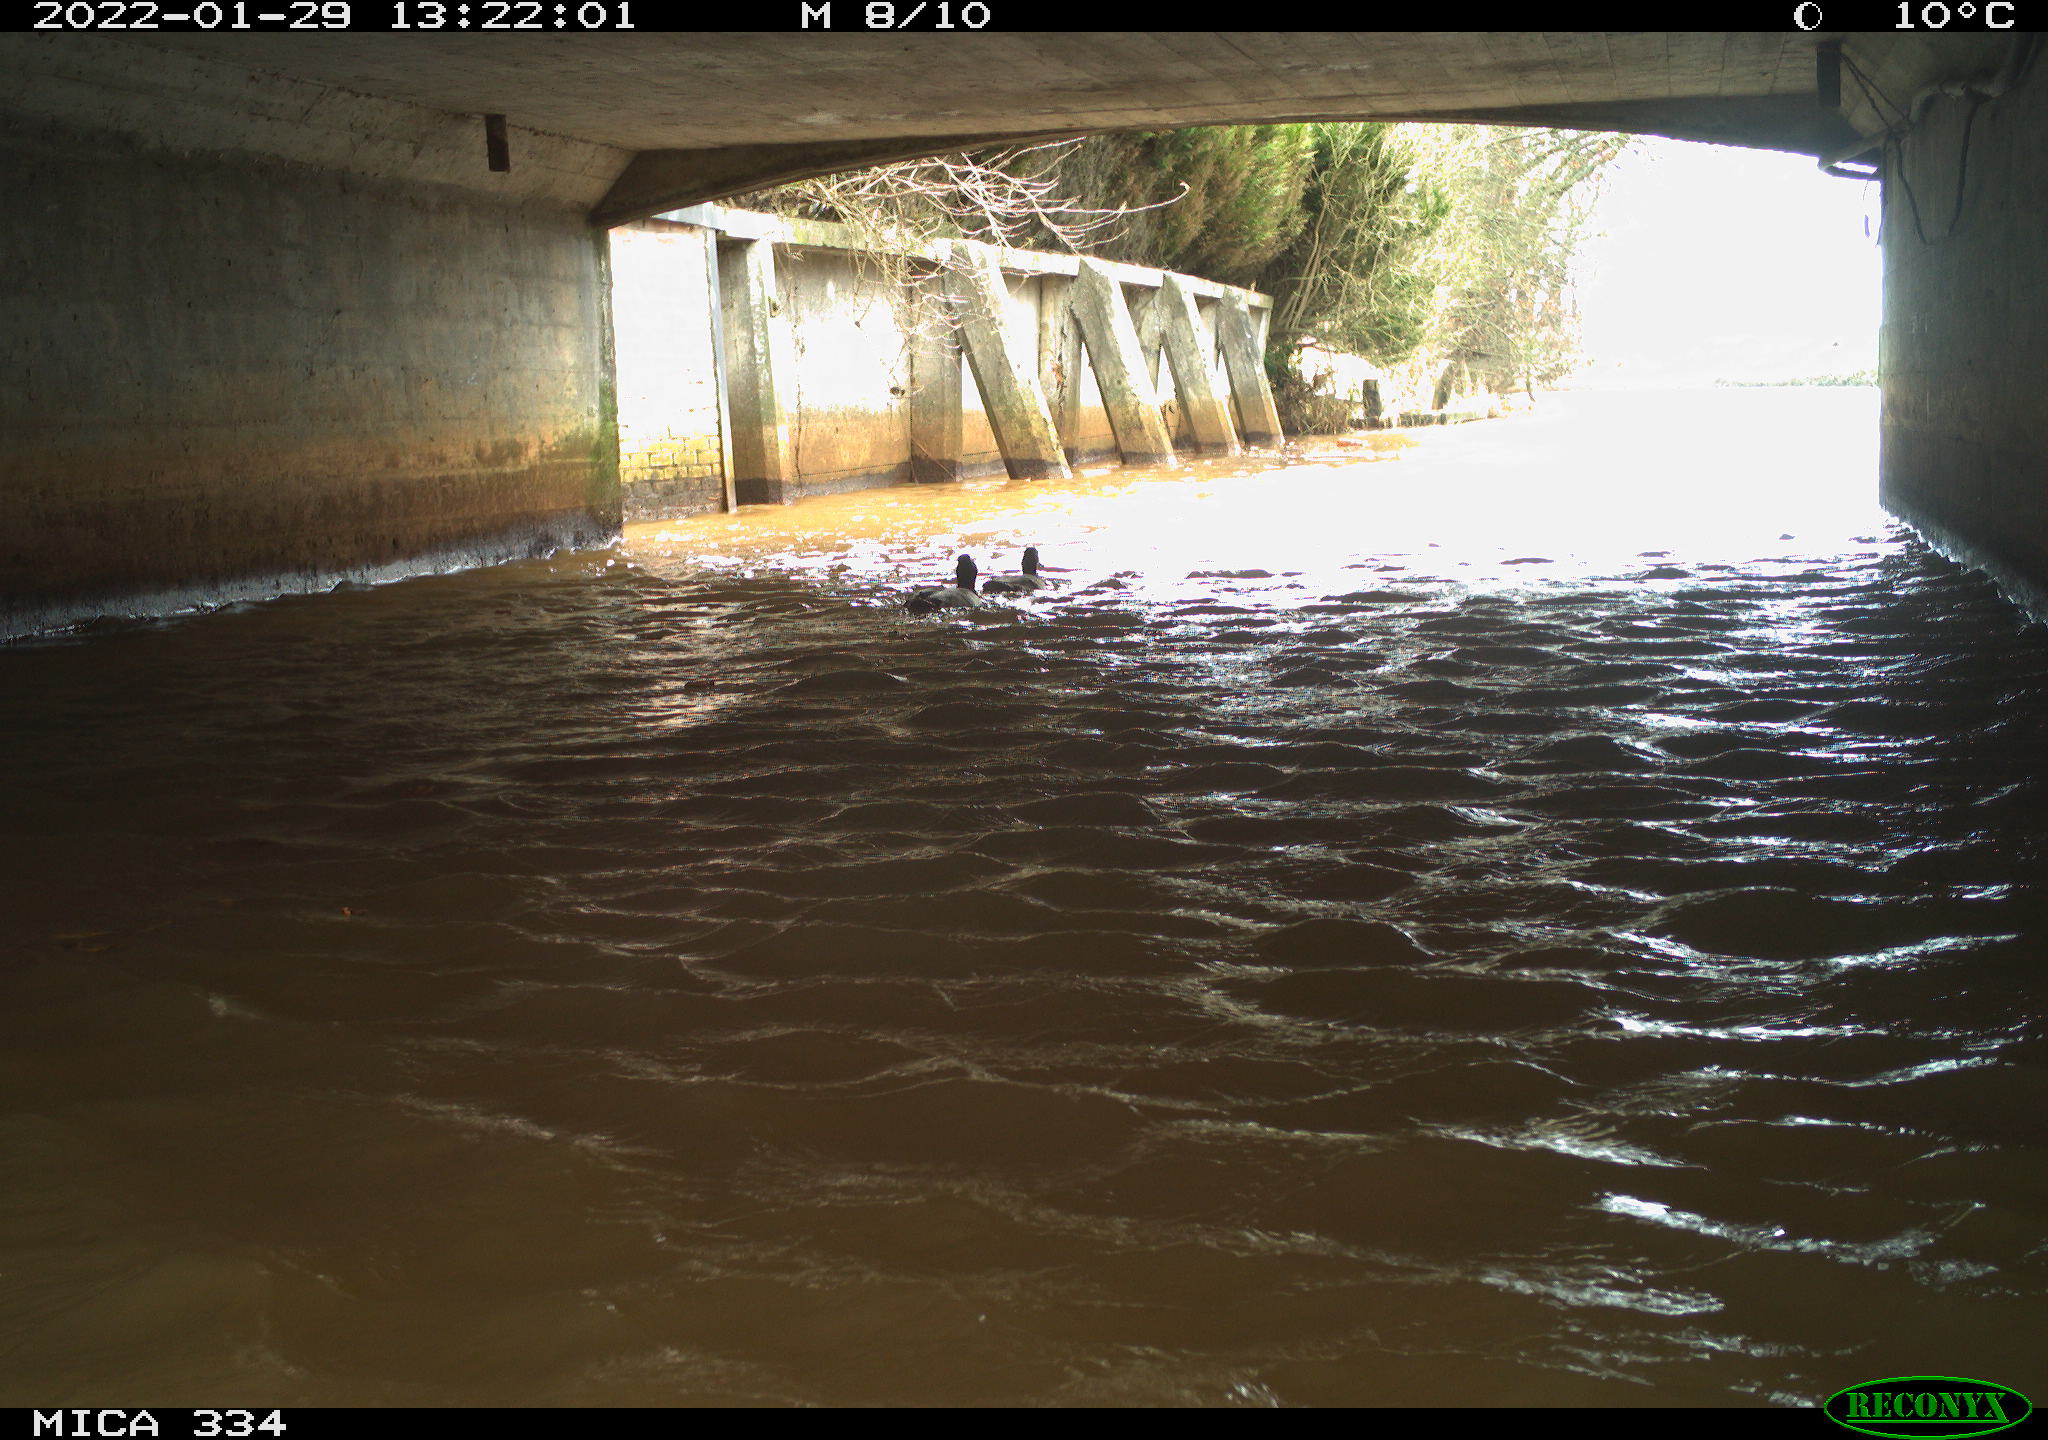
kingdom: Animalia
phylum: Chordata
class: Aves
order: Anseriformes
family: Anatidae
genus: Anas
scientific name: Anas platyrhynchos
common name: Mallard
